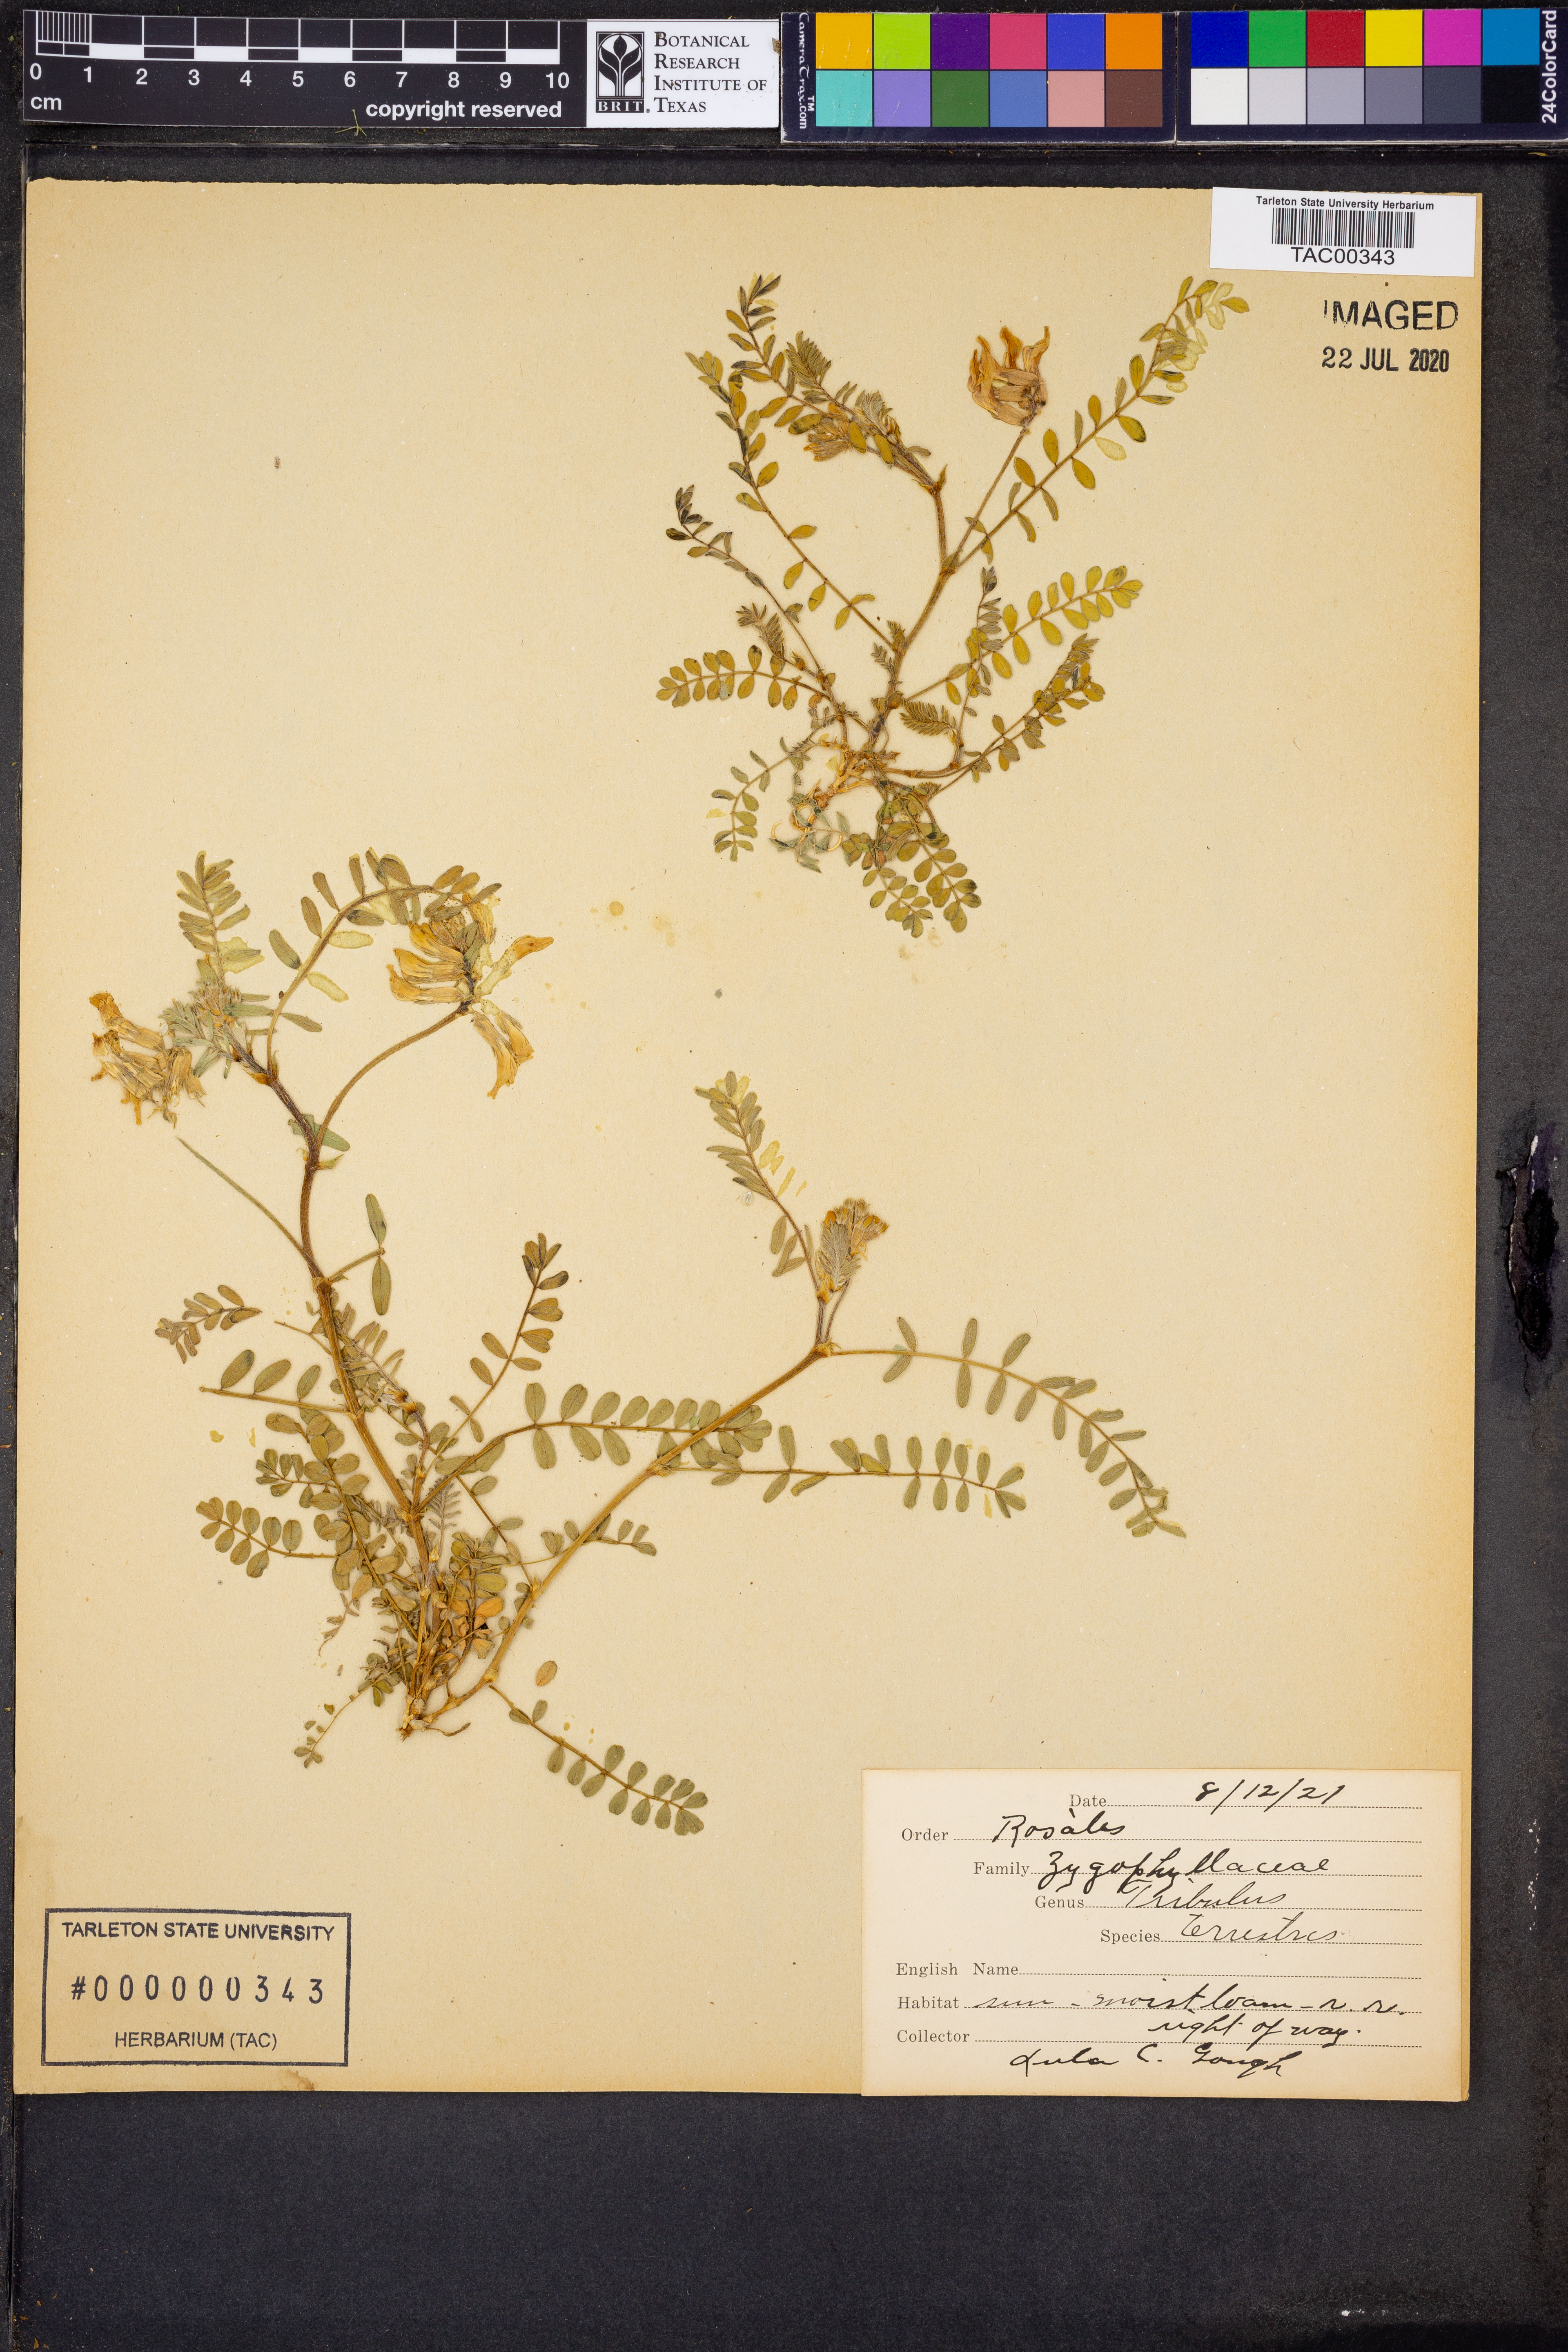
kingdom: Plantae
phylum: Tracheophyta
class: Magnoliopsida
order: Zygophyllales
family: Zygophyllaceae
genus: Tribulus
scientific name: Tribulus terrestris
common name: Puncturevine
